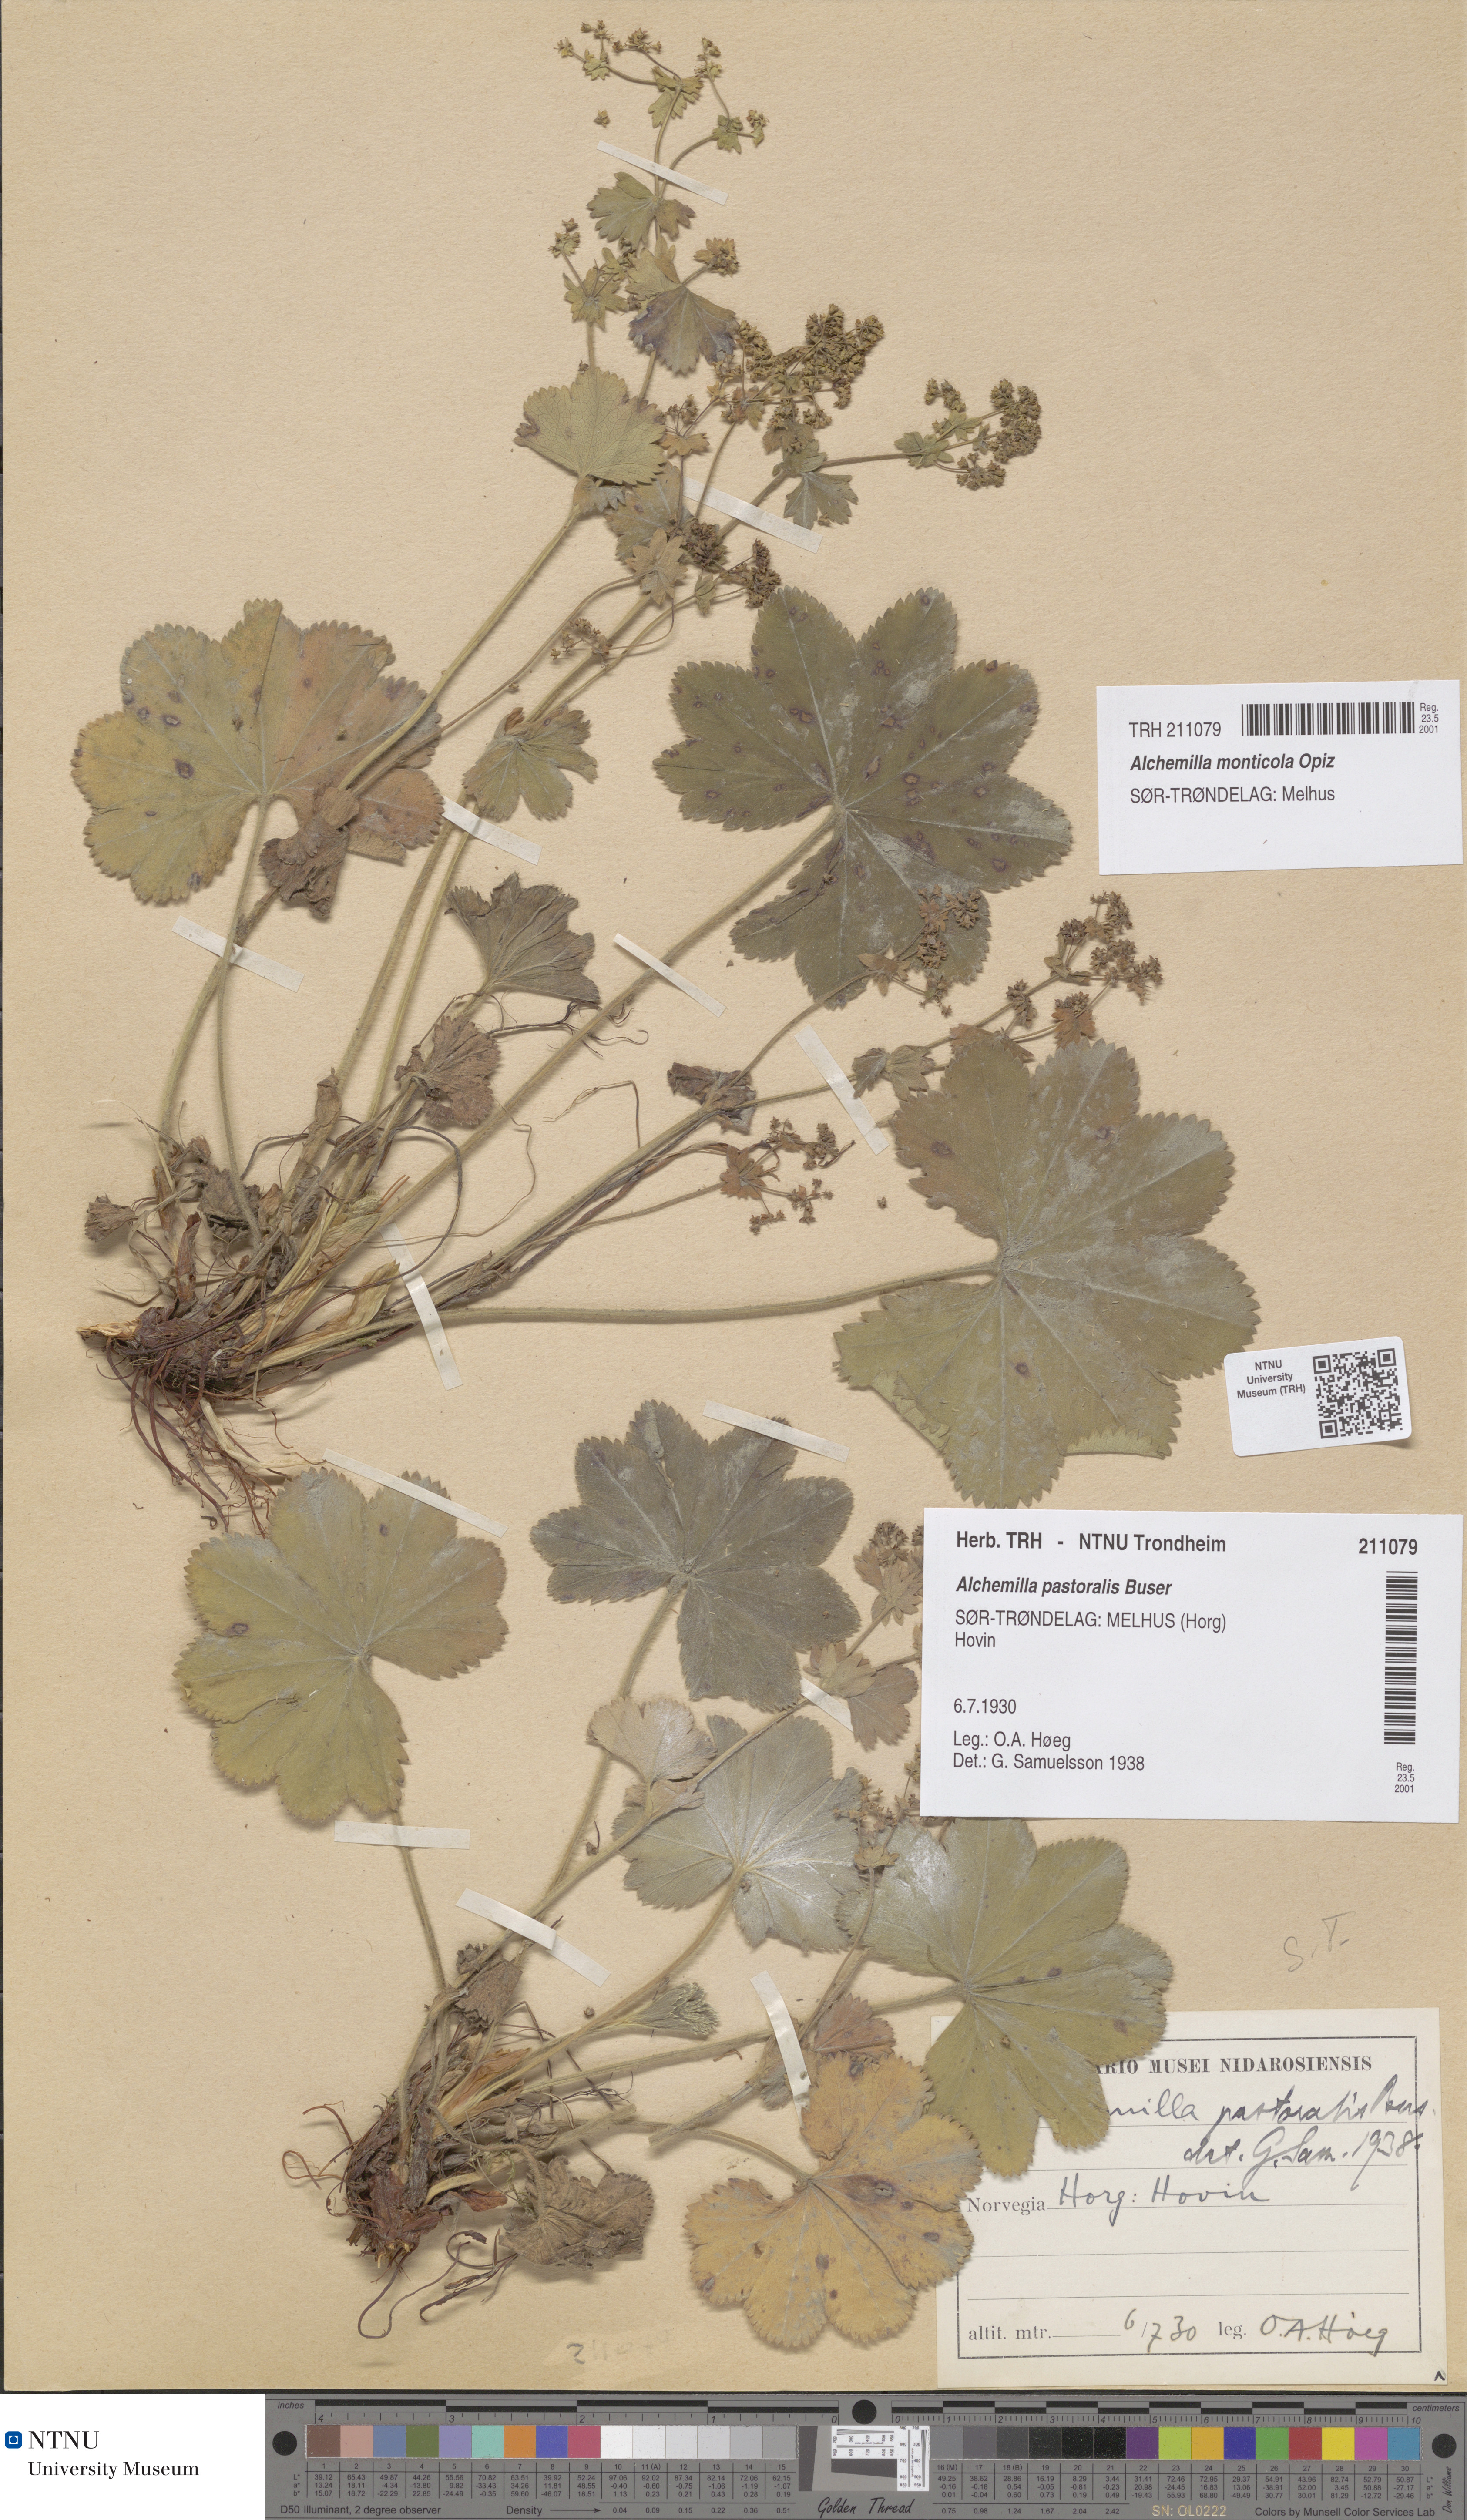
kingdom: Plantae
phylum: Tracheophyta
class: Magnoliopsida
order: Rosales
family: Rosaceae
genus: Alchemilla
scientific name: Alchemilla monticola
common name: Hairy lady's mantle
